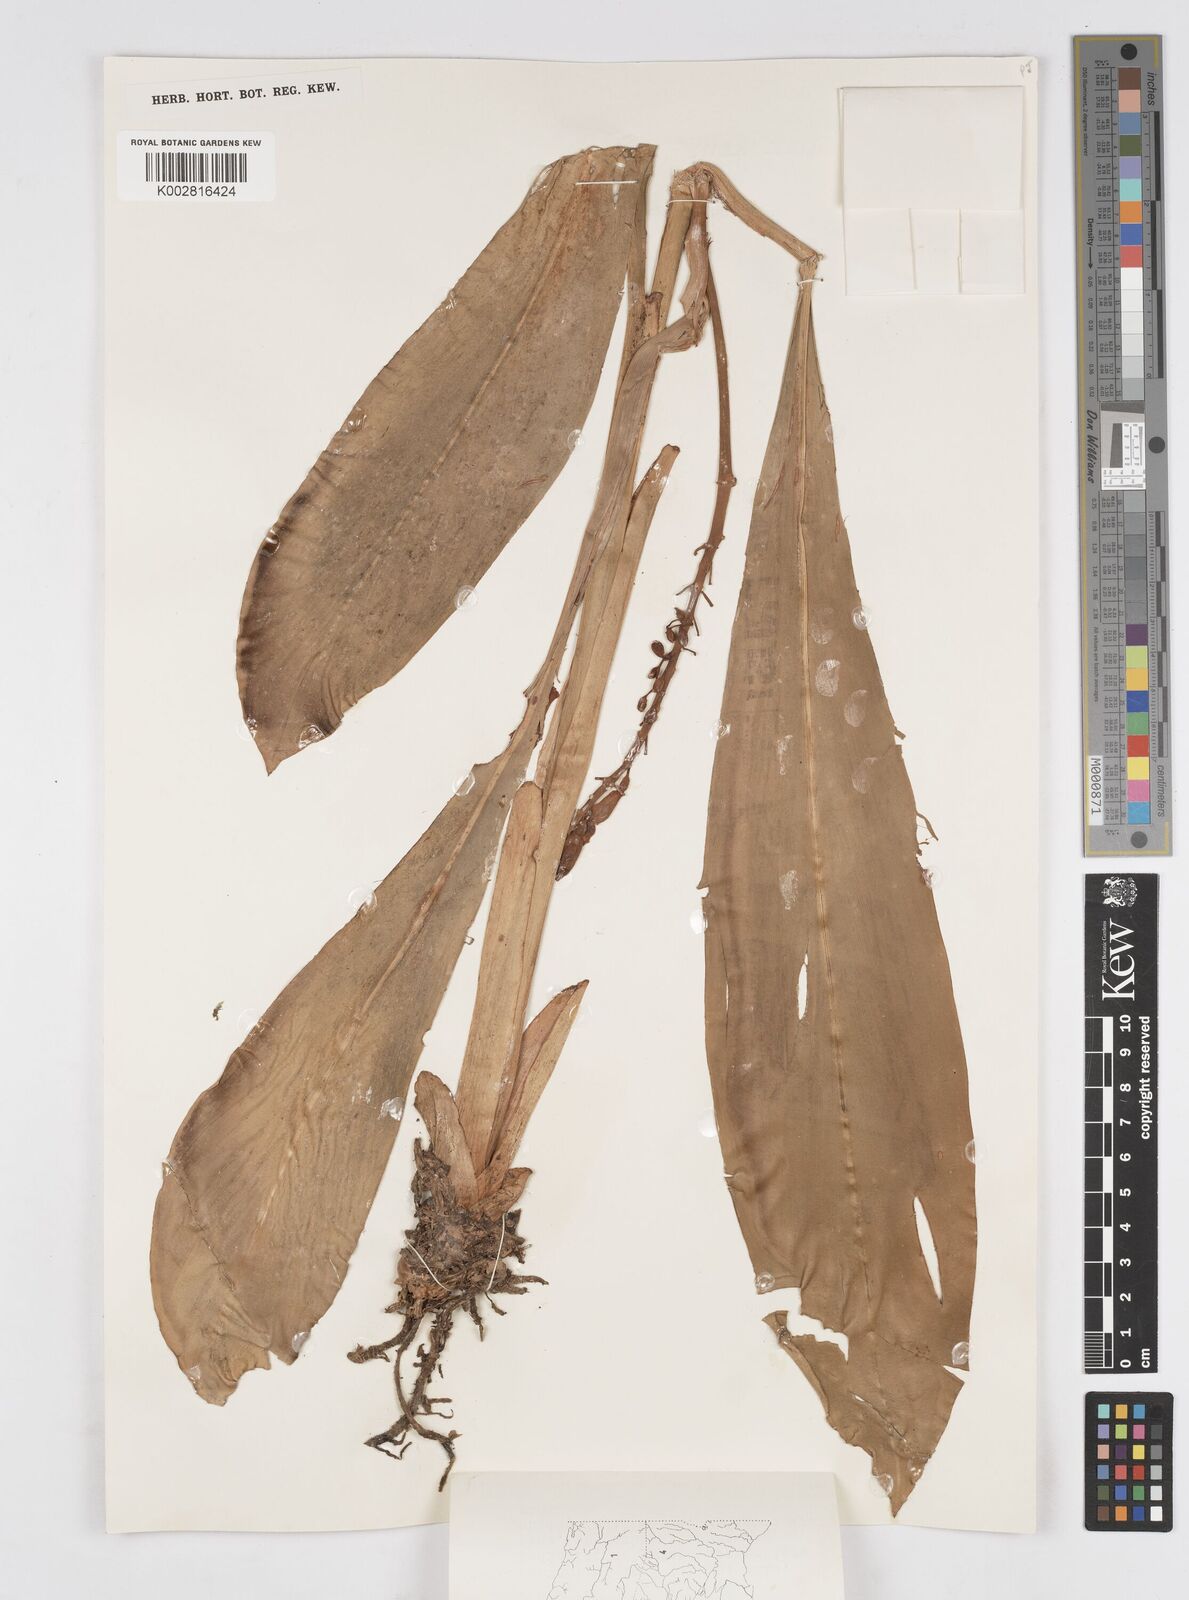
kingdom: Plantae
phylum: Tracheophyta
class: Liliopsida
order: Zingiberales
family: Zingiberaceae
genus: Alpinia
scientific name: Alpinia
